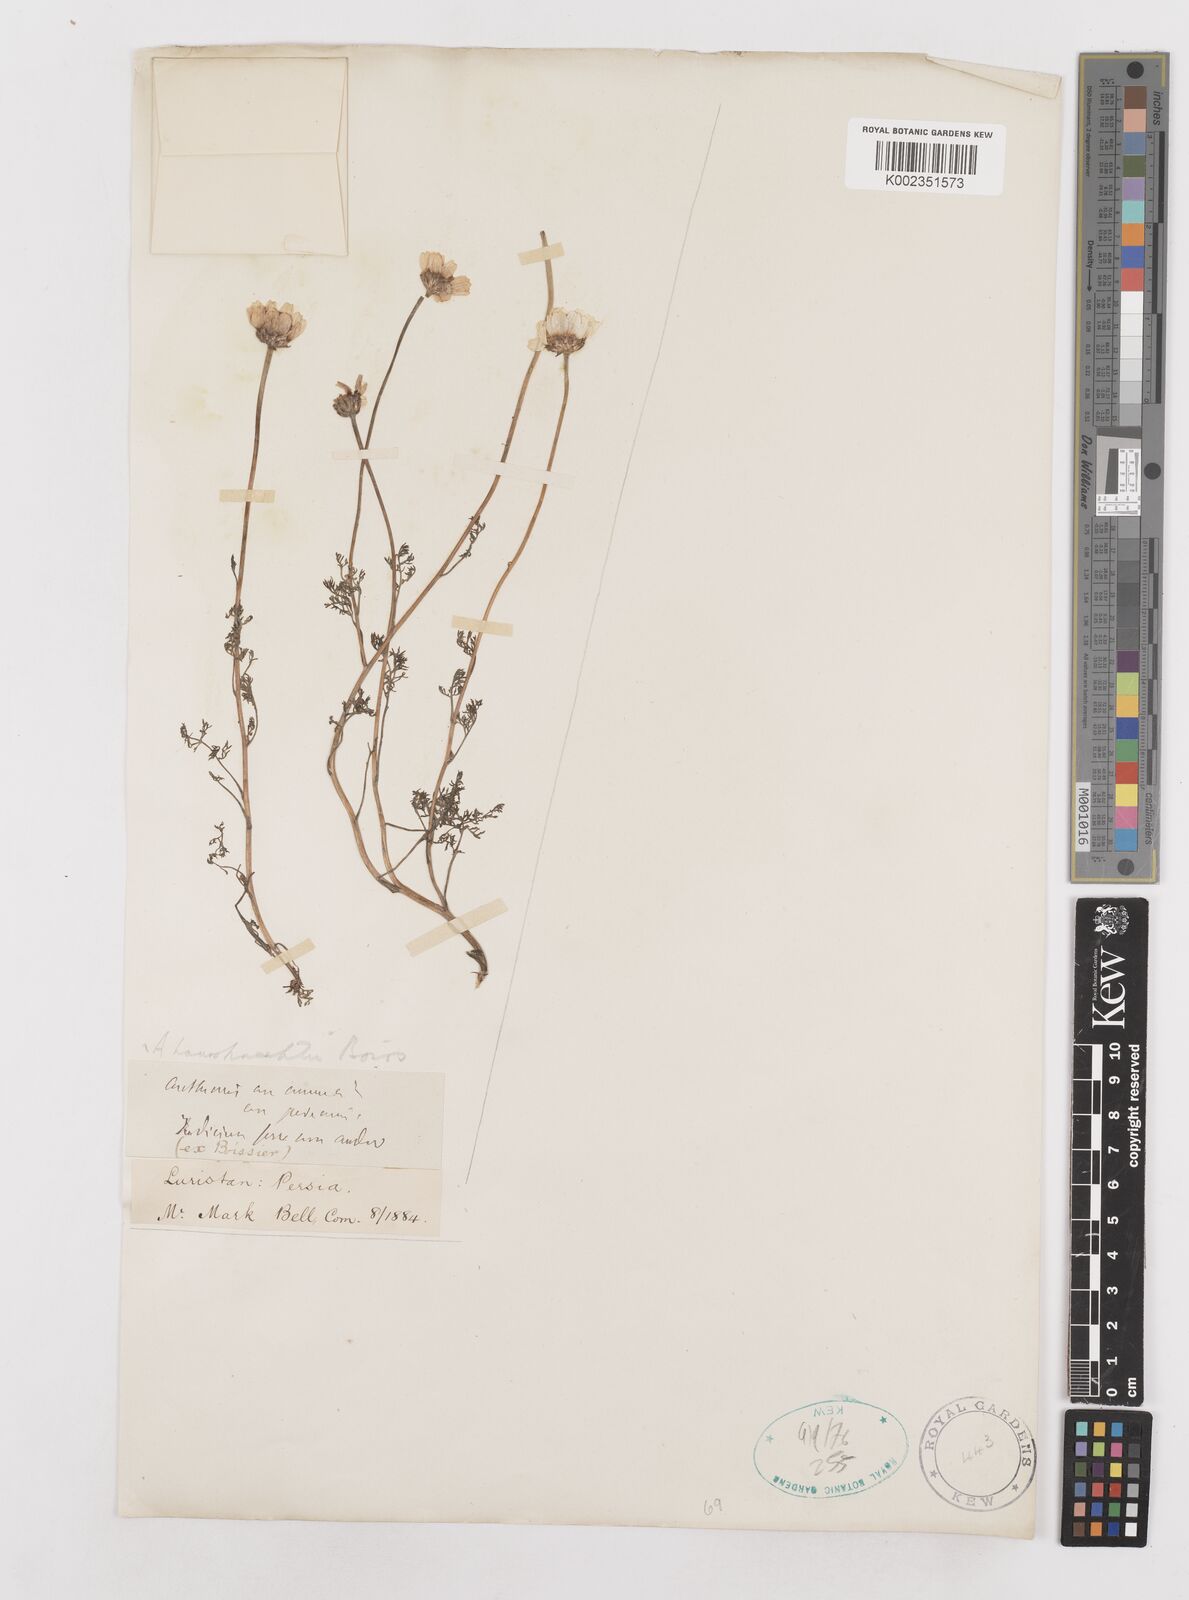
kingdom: Plantae
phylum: Tracheophyta
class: Magnoliopsida
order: Asterales
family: Asteraceae
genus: Anthemis
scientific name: Anthemis haussknechtii
